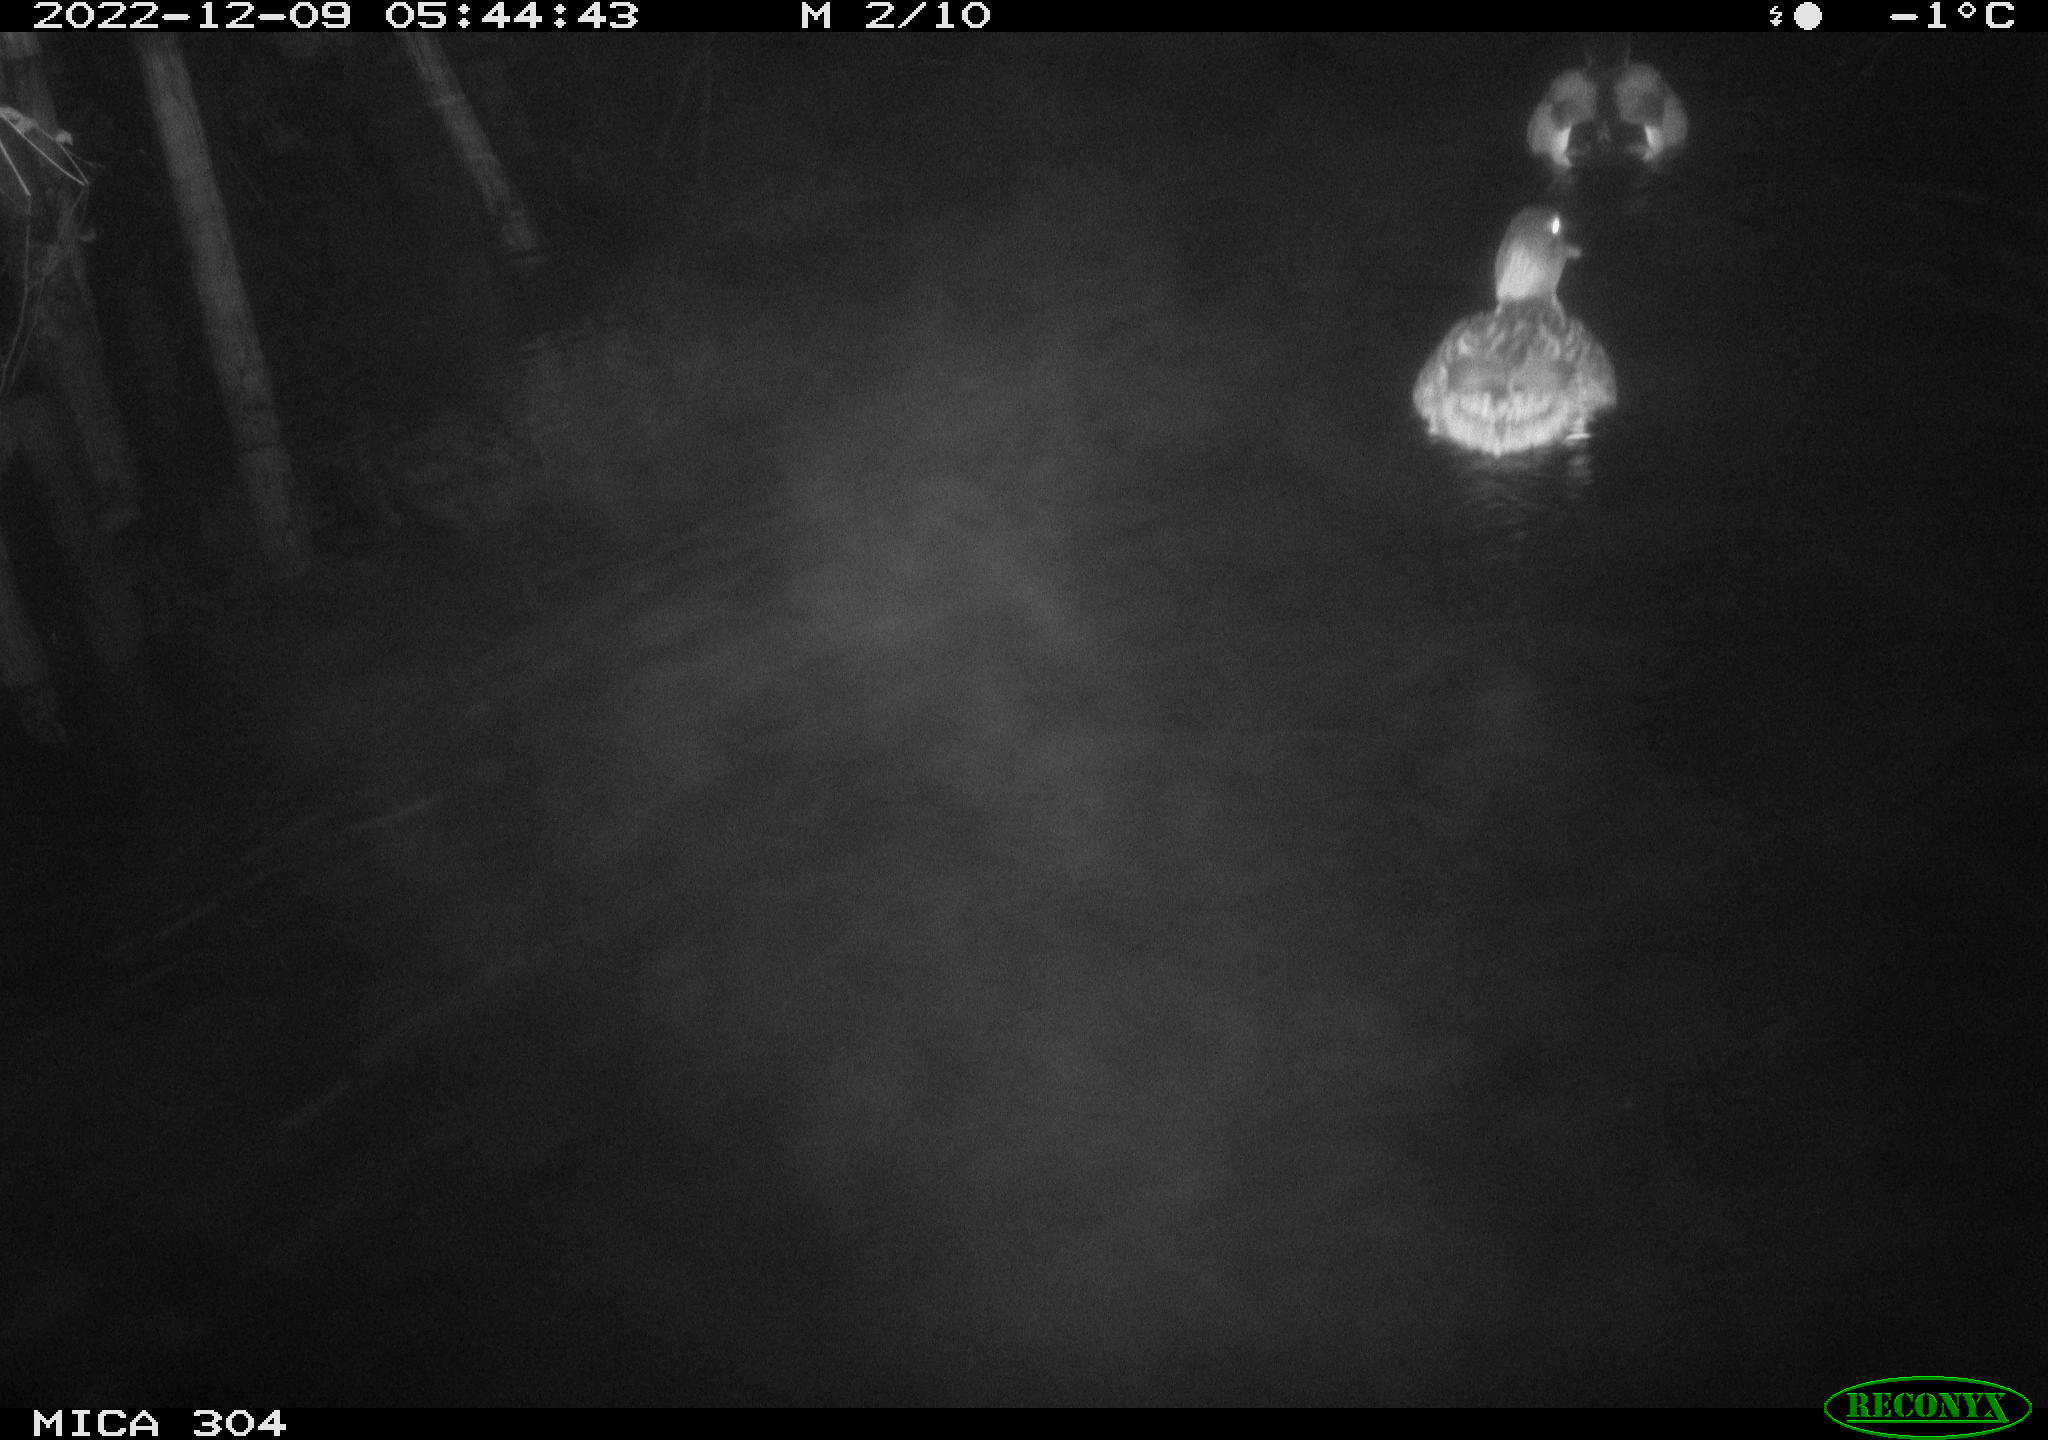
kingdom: Animalia
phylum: Chordata
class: Aves
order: Anseriformes
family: Anatidae
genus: Anas
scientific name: Anas
